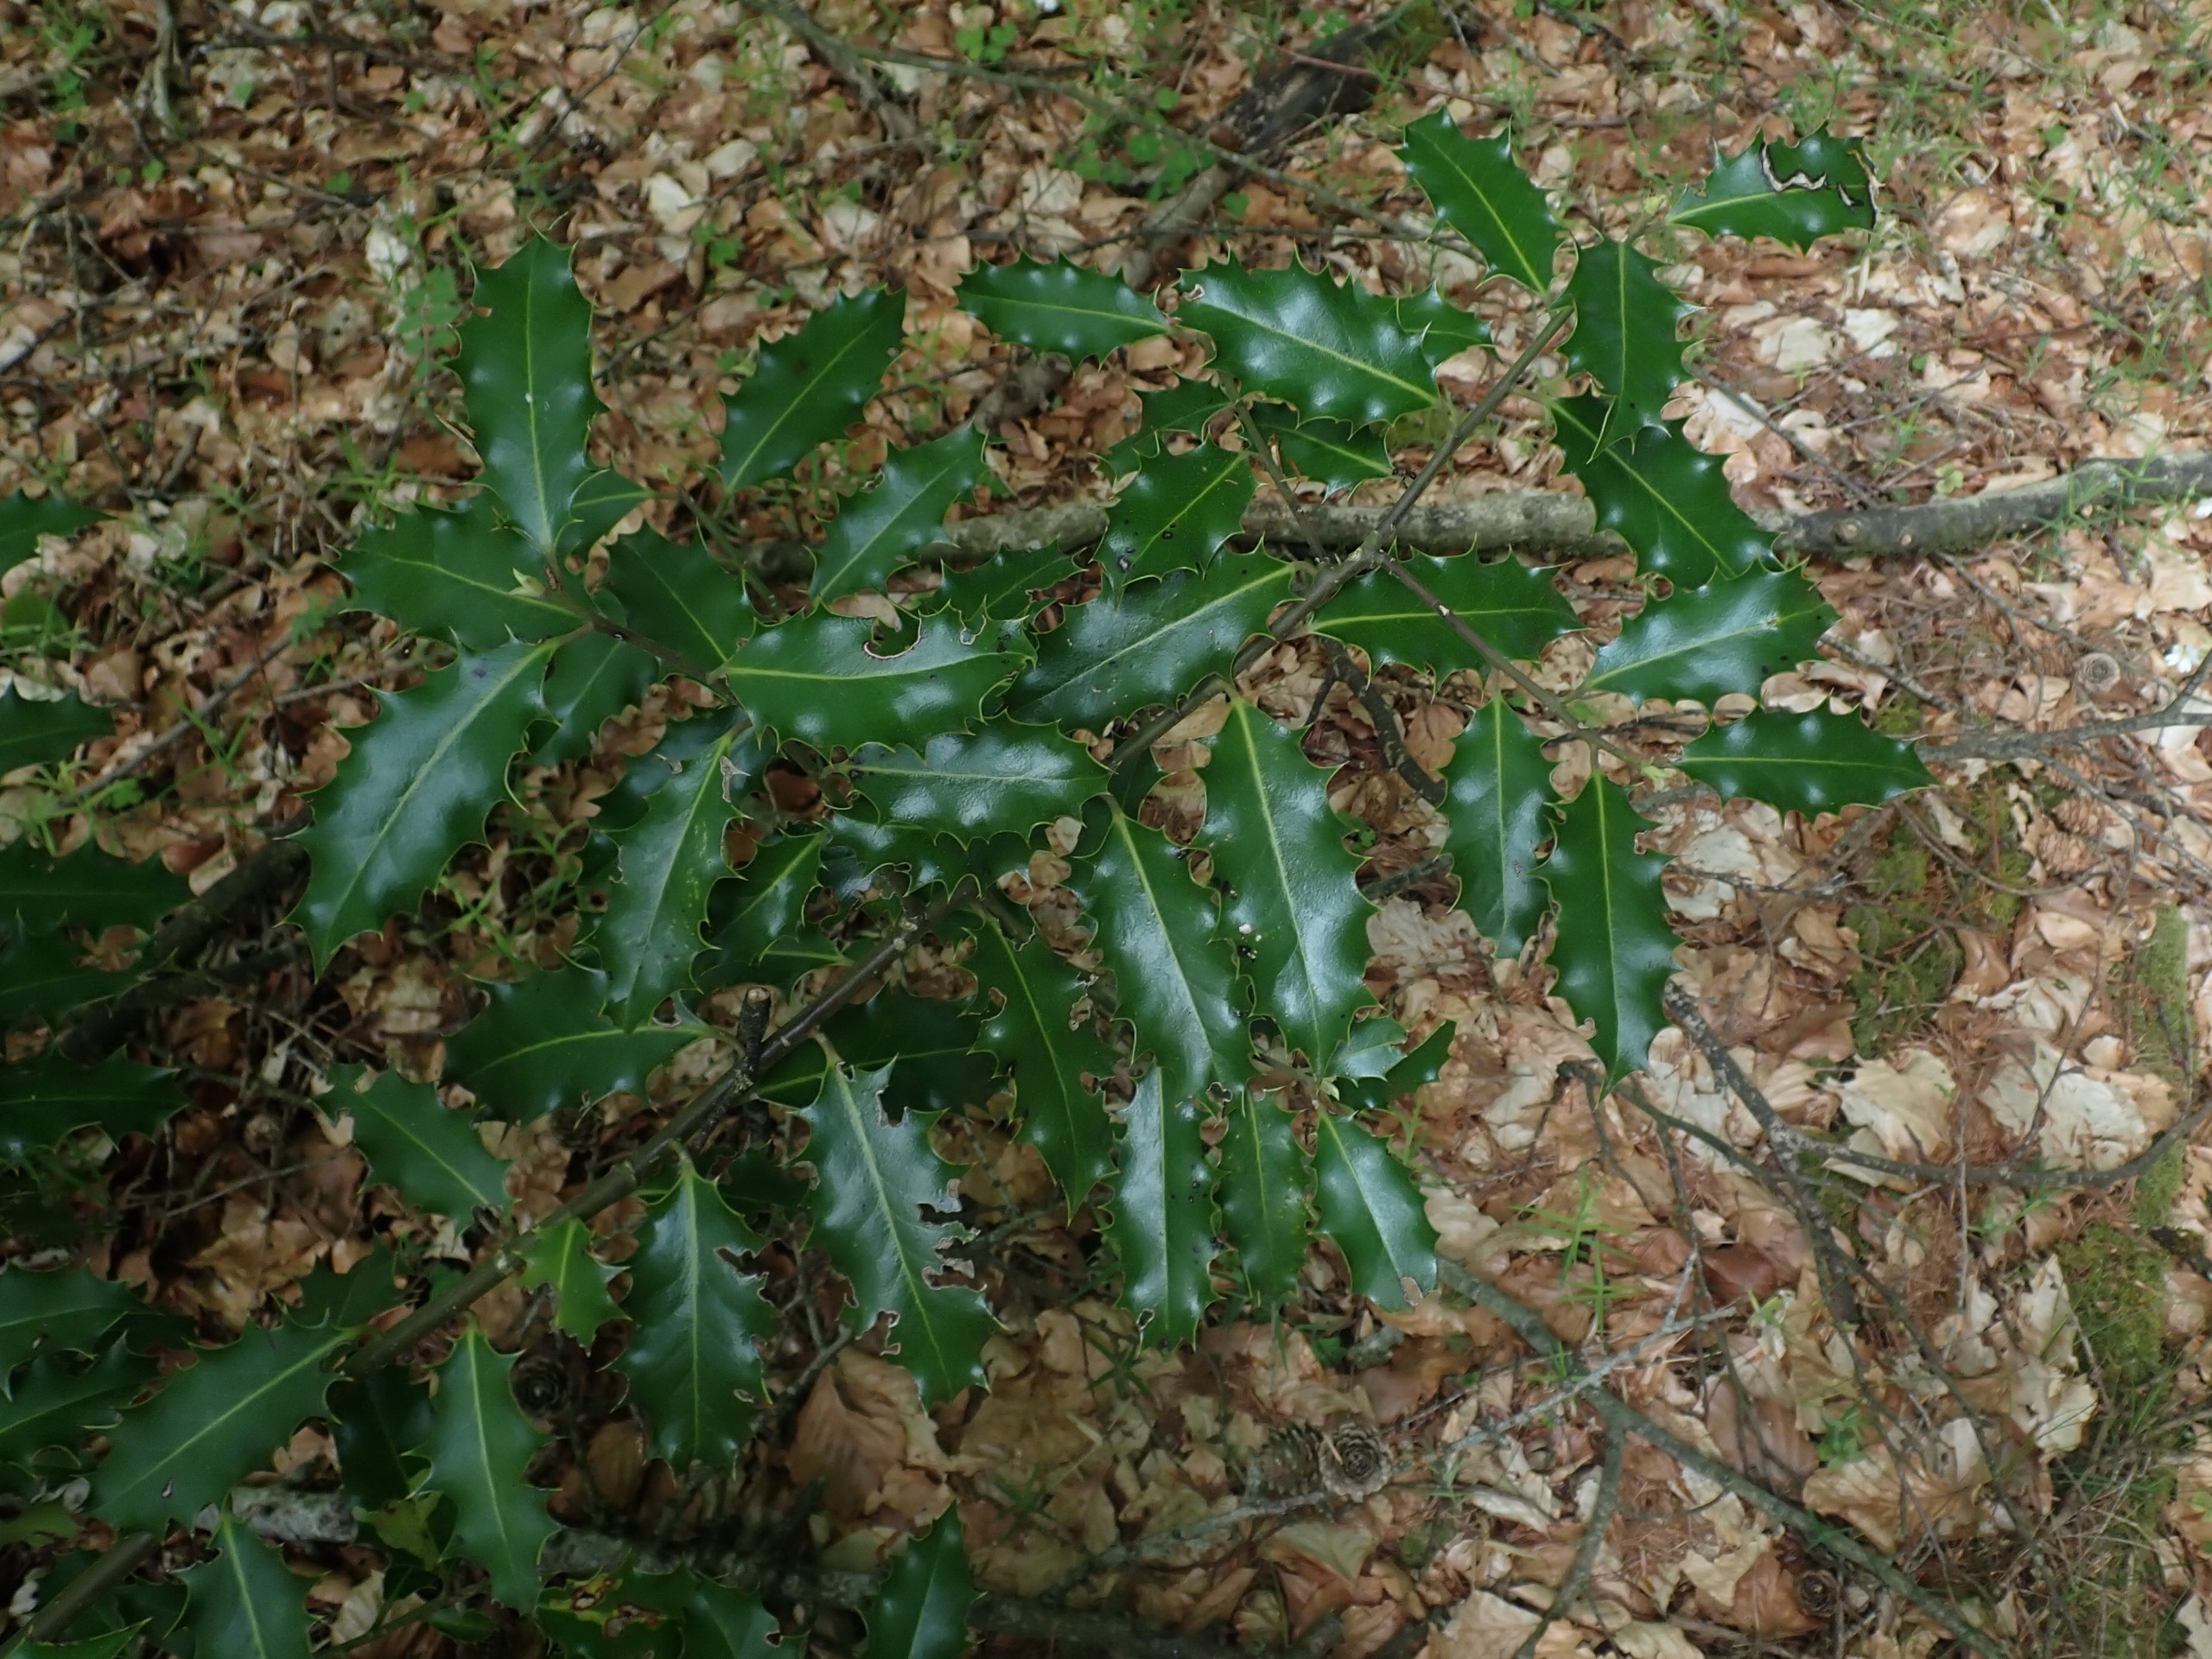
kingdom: Plantae
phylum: Tracheophyta
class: Magnoliopsida
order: Aquifoliales
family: Aquifoliaceae
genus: Ilex
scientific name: Ilex aquifolium
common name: Kristtorn
